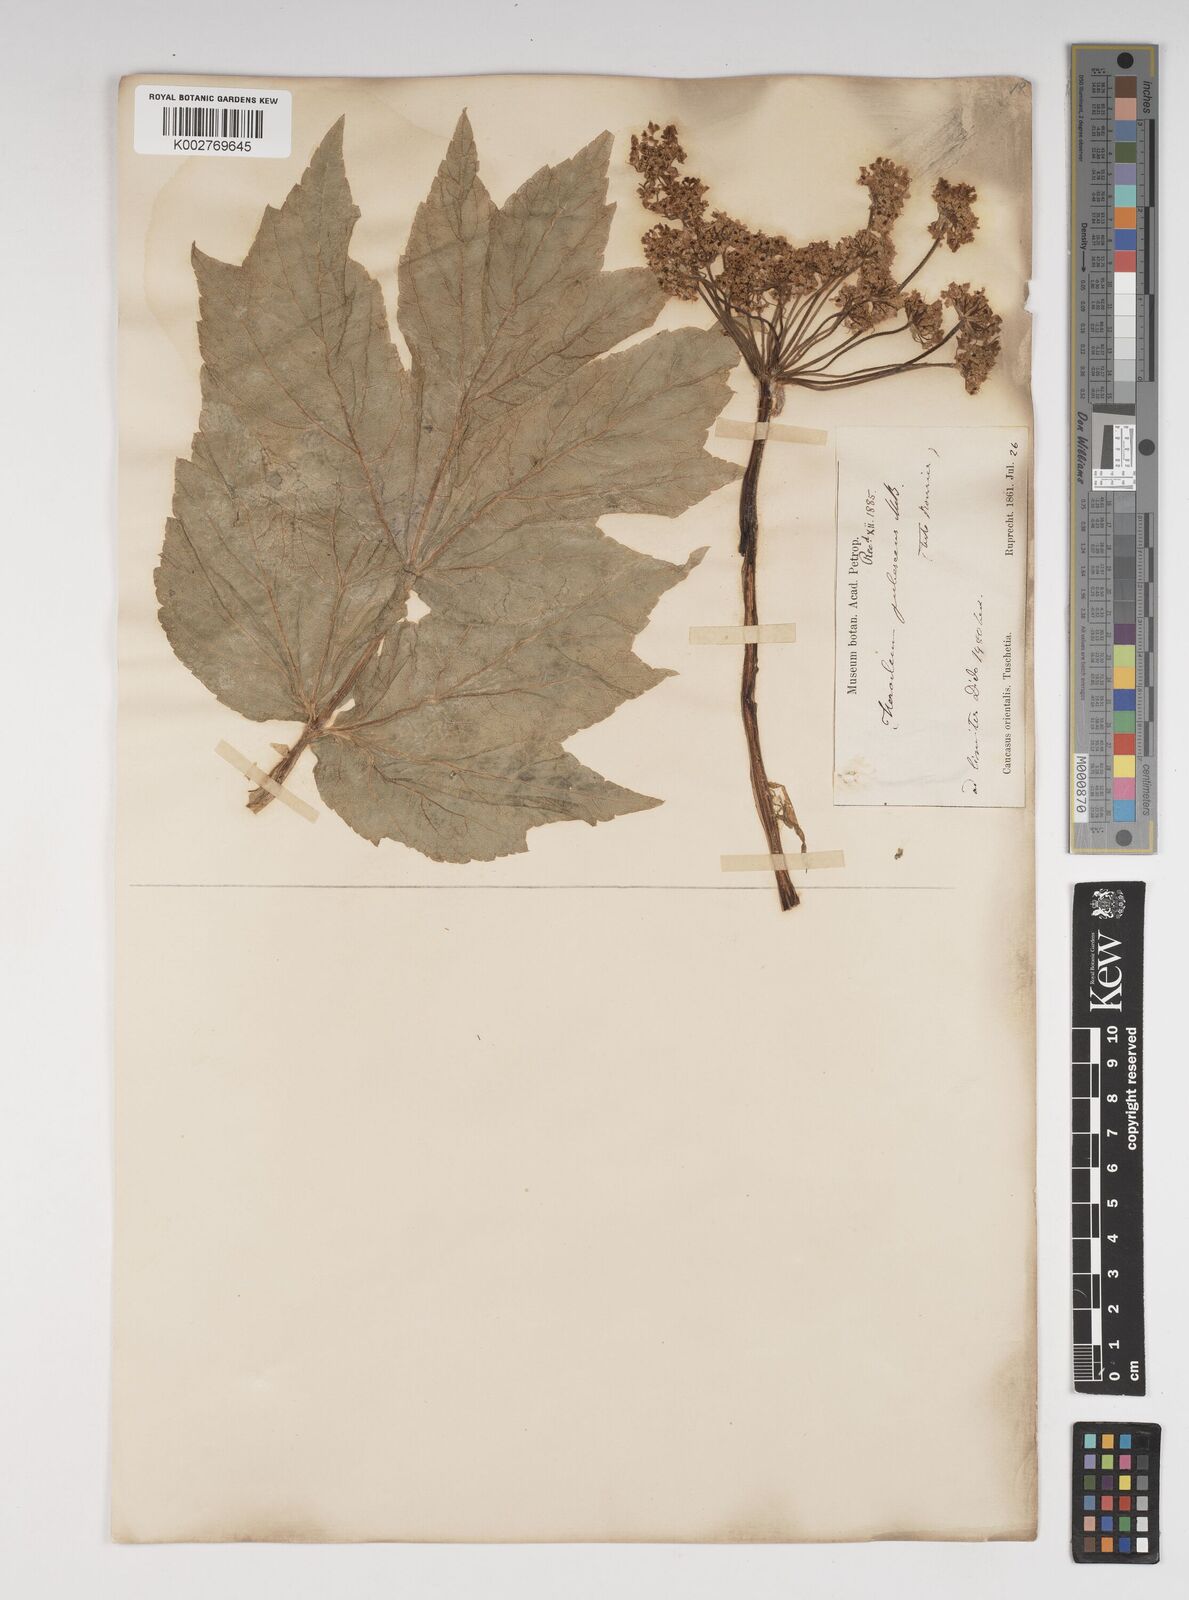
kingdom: Plantae
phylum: Tracheophyta
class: Magnoliopsida
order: Apiales
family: Apiaceae
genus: Heracleum
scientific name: Heracleum pubescens
